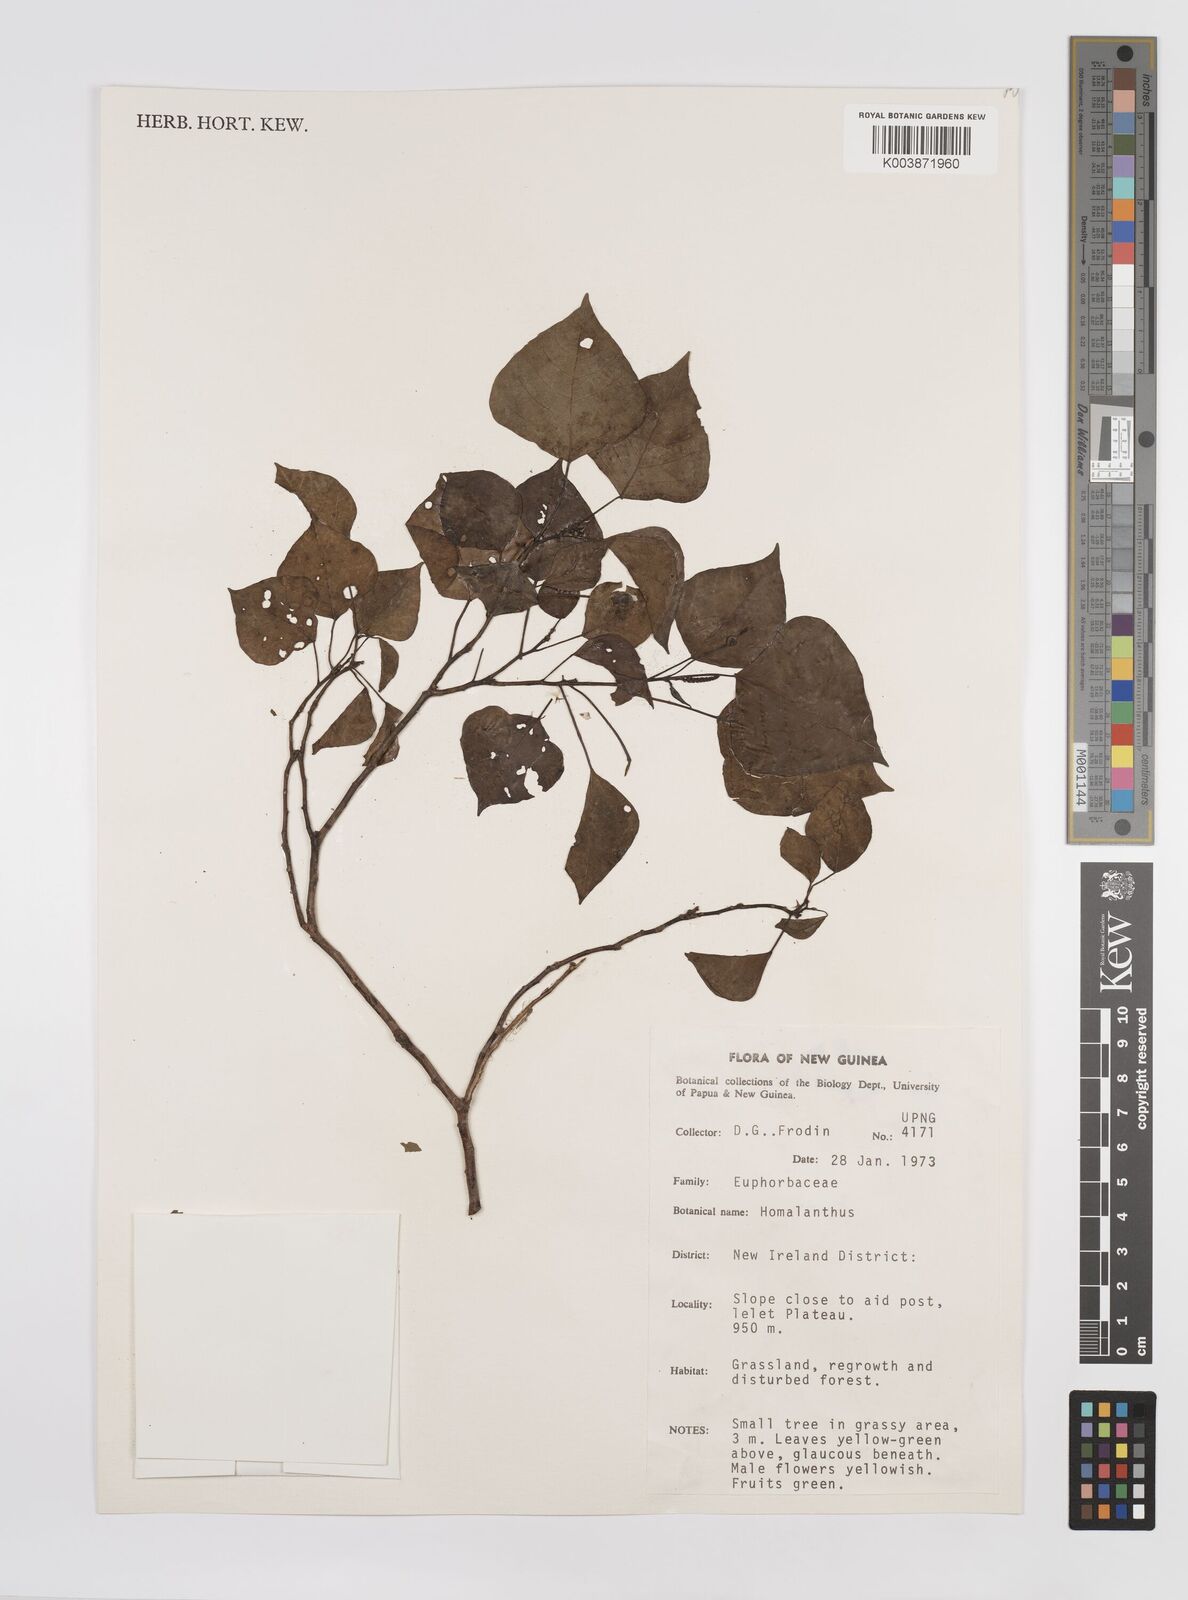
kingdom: Plantae
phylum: Tracheophyta
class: Magnoliopsida
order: Malpighiales
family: Euphorbiaceae
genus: Homalanthus
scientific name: Homalanthus novoguineensis
